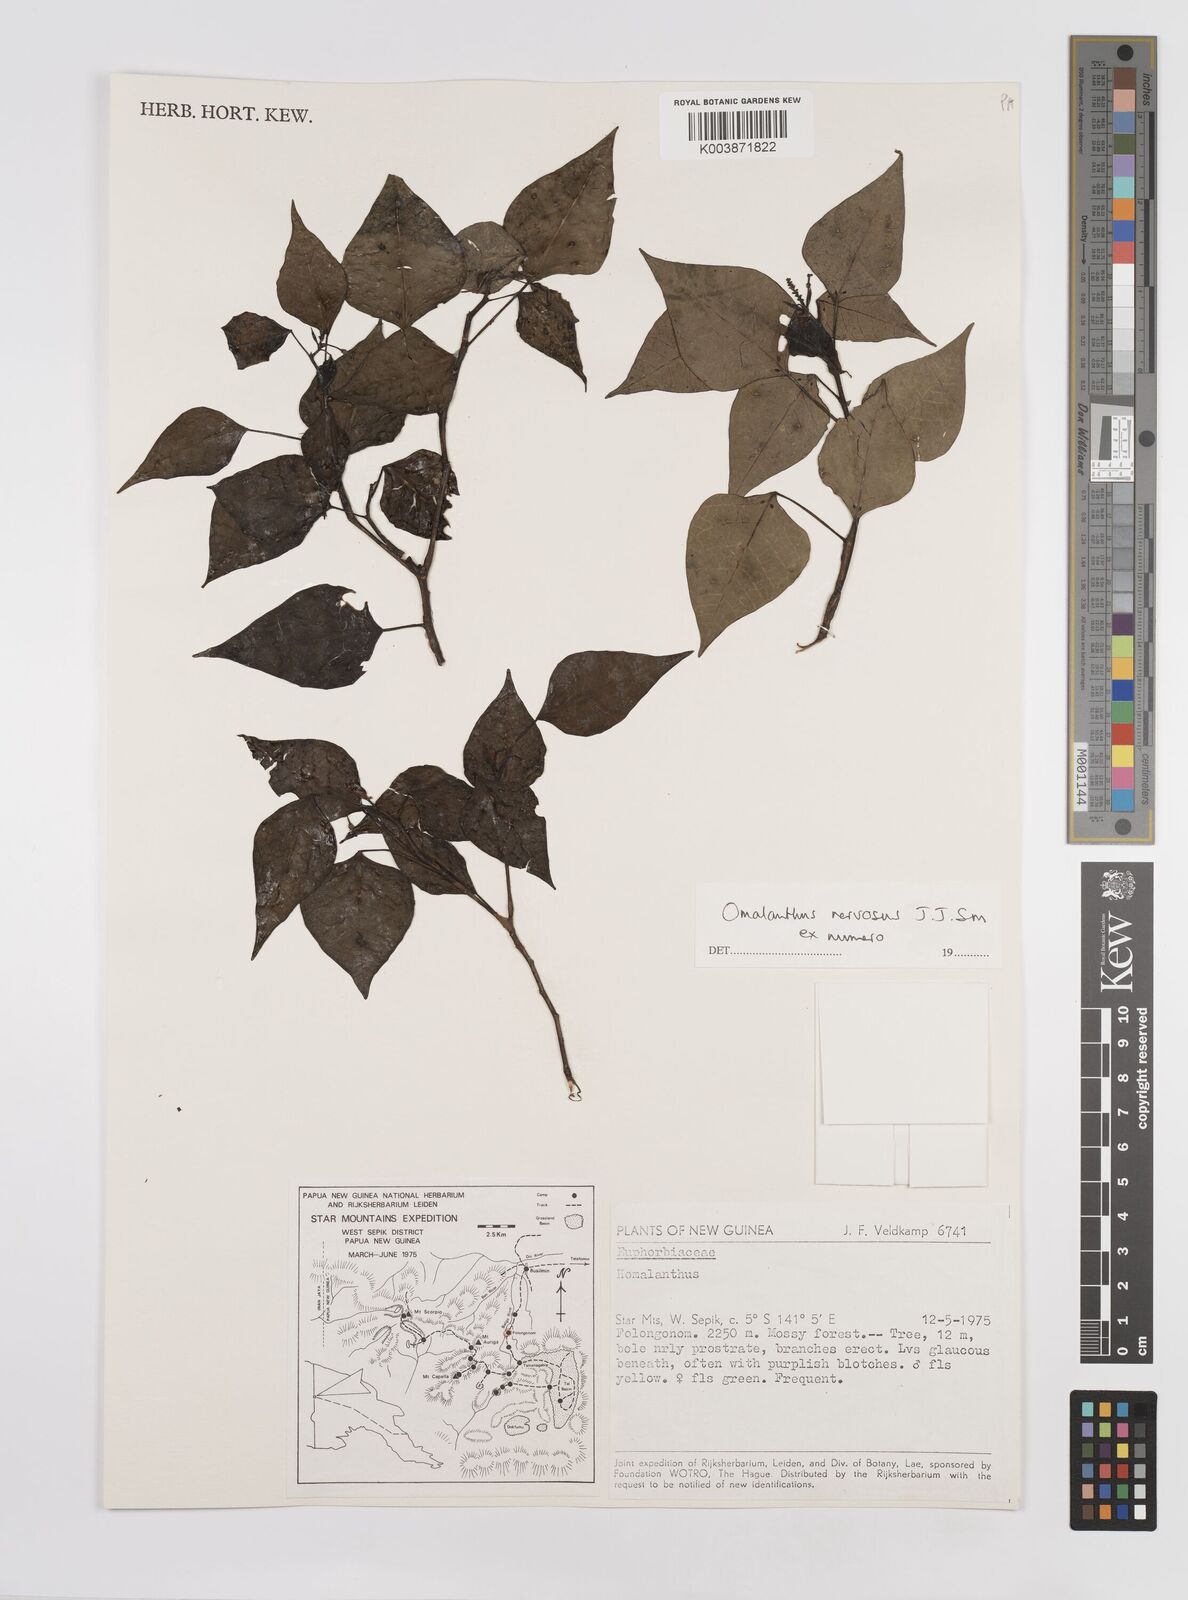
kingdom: Plantae
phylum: Tracheophyta
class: Magnoliopsida
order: Malpighiales
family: Euphorbiaceae
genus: Homalanthus
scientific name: Homalanthus nervosus
